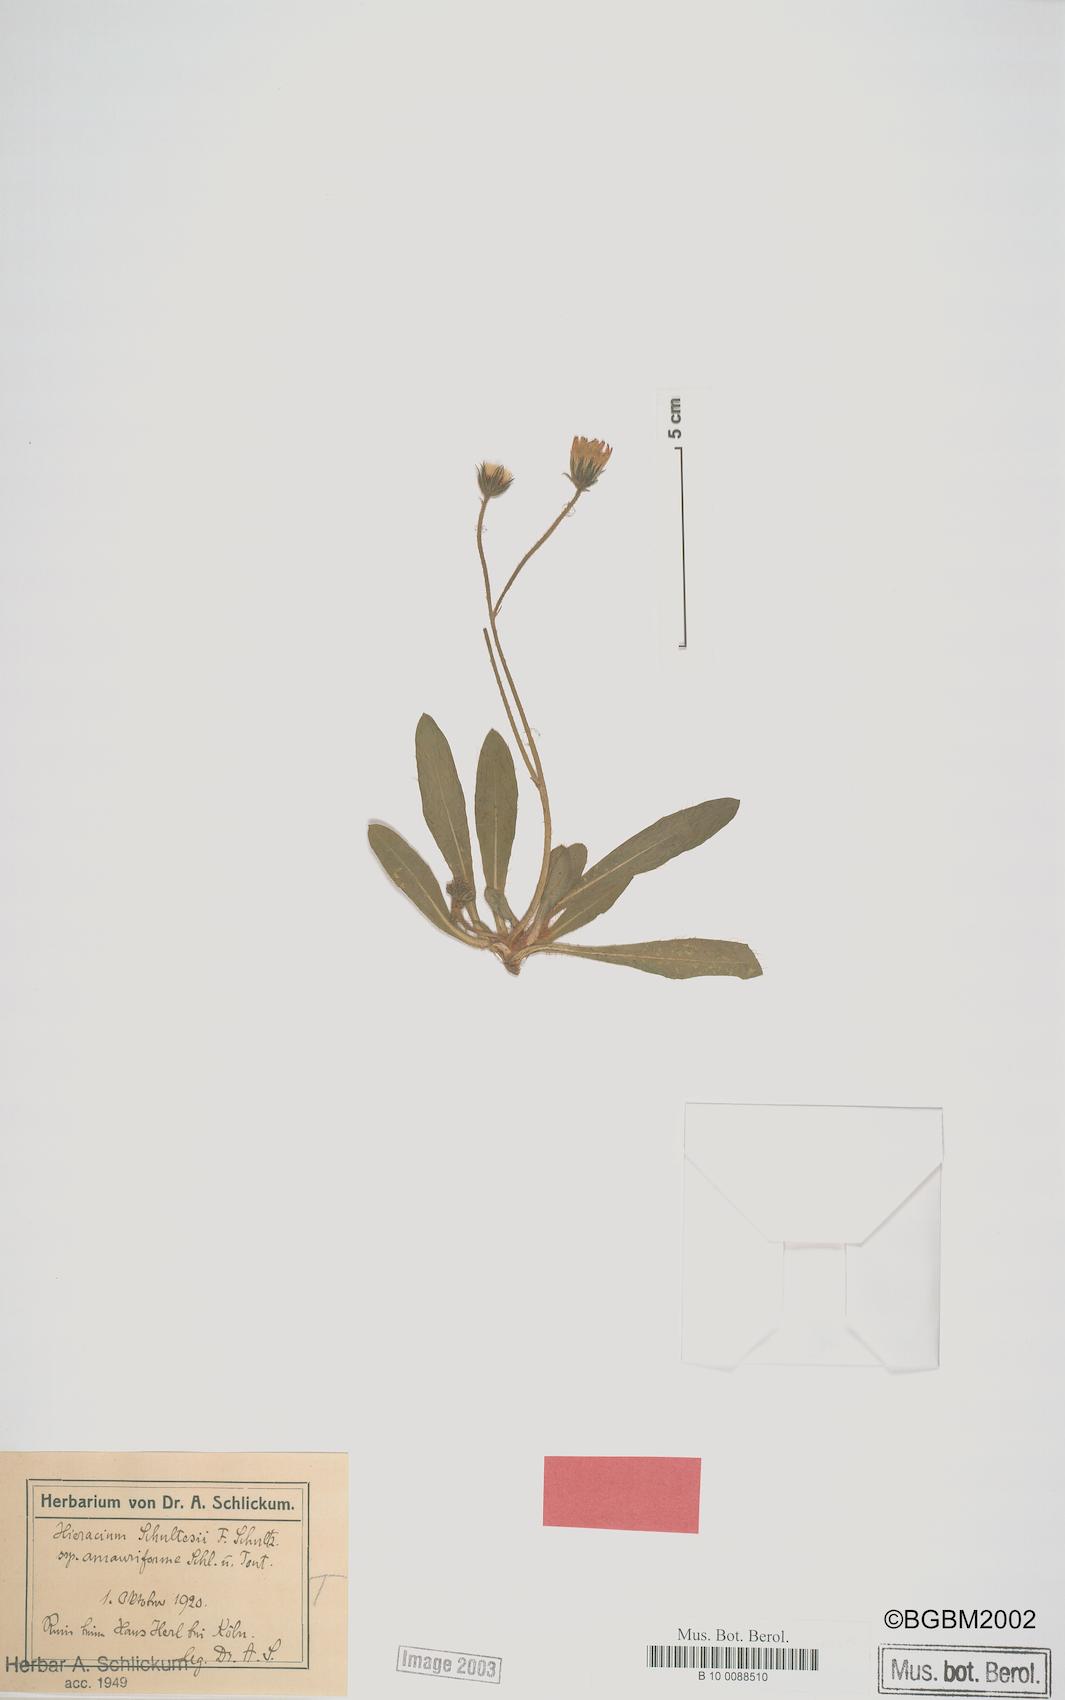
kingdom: Plantae
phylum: Tracheophyta
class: Magnoliopsida
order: Asterales
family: Asteraceae
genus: Pilosella
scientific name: Pilosella schultesii
